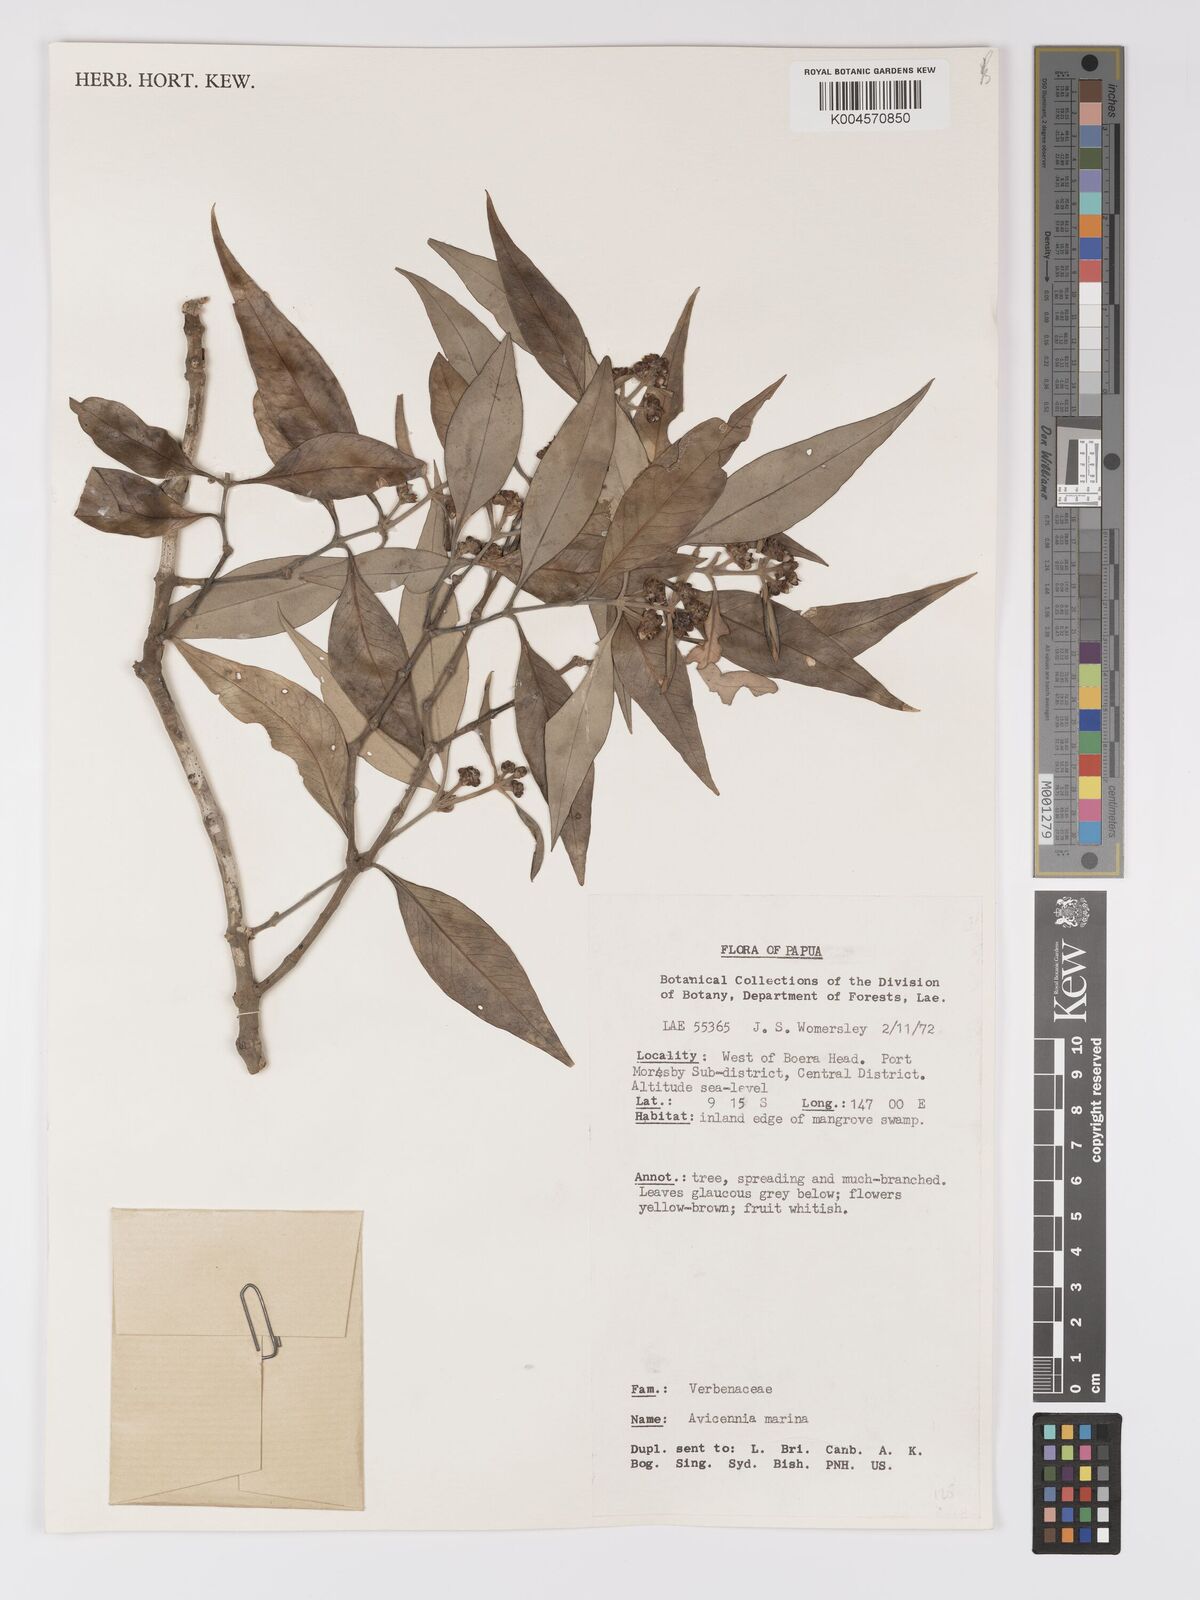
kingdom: Plantae
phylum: Tracheophyta
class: Magnoliopsida
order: Lamiales
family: Acanthaceae
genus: Avicennia
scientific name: Avicennia marina
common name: Gray mangrove
